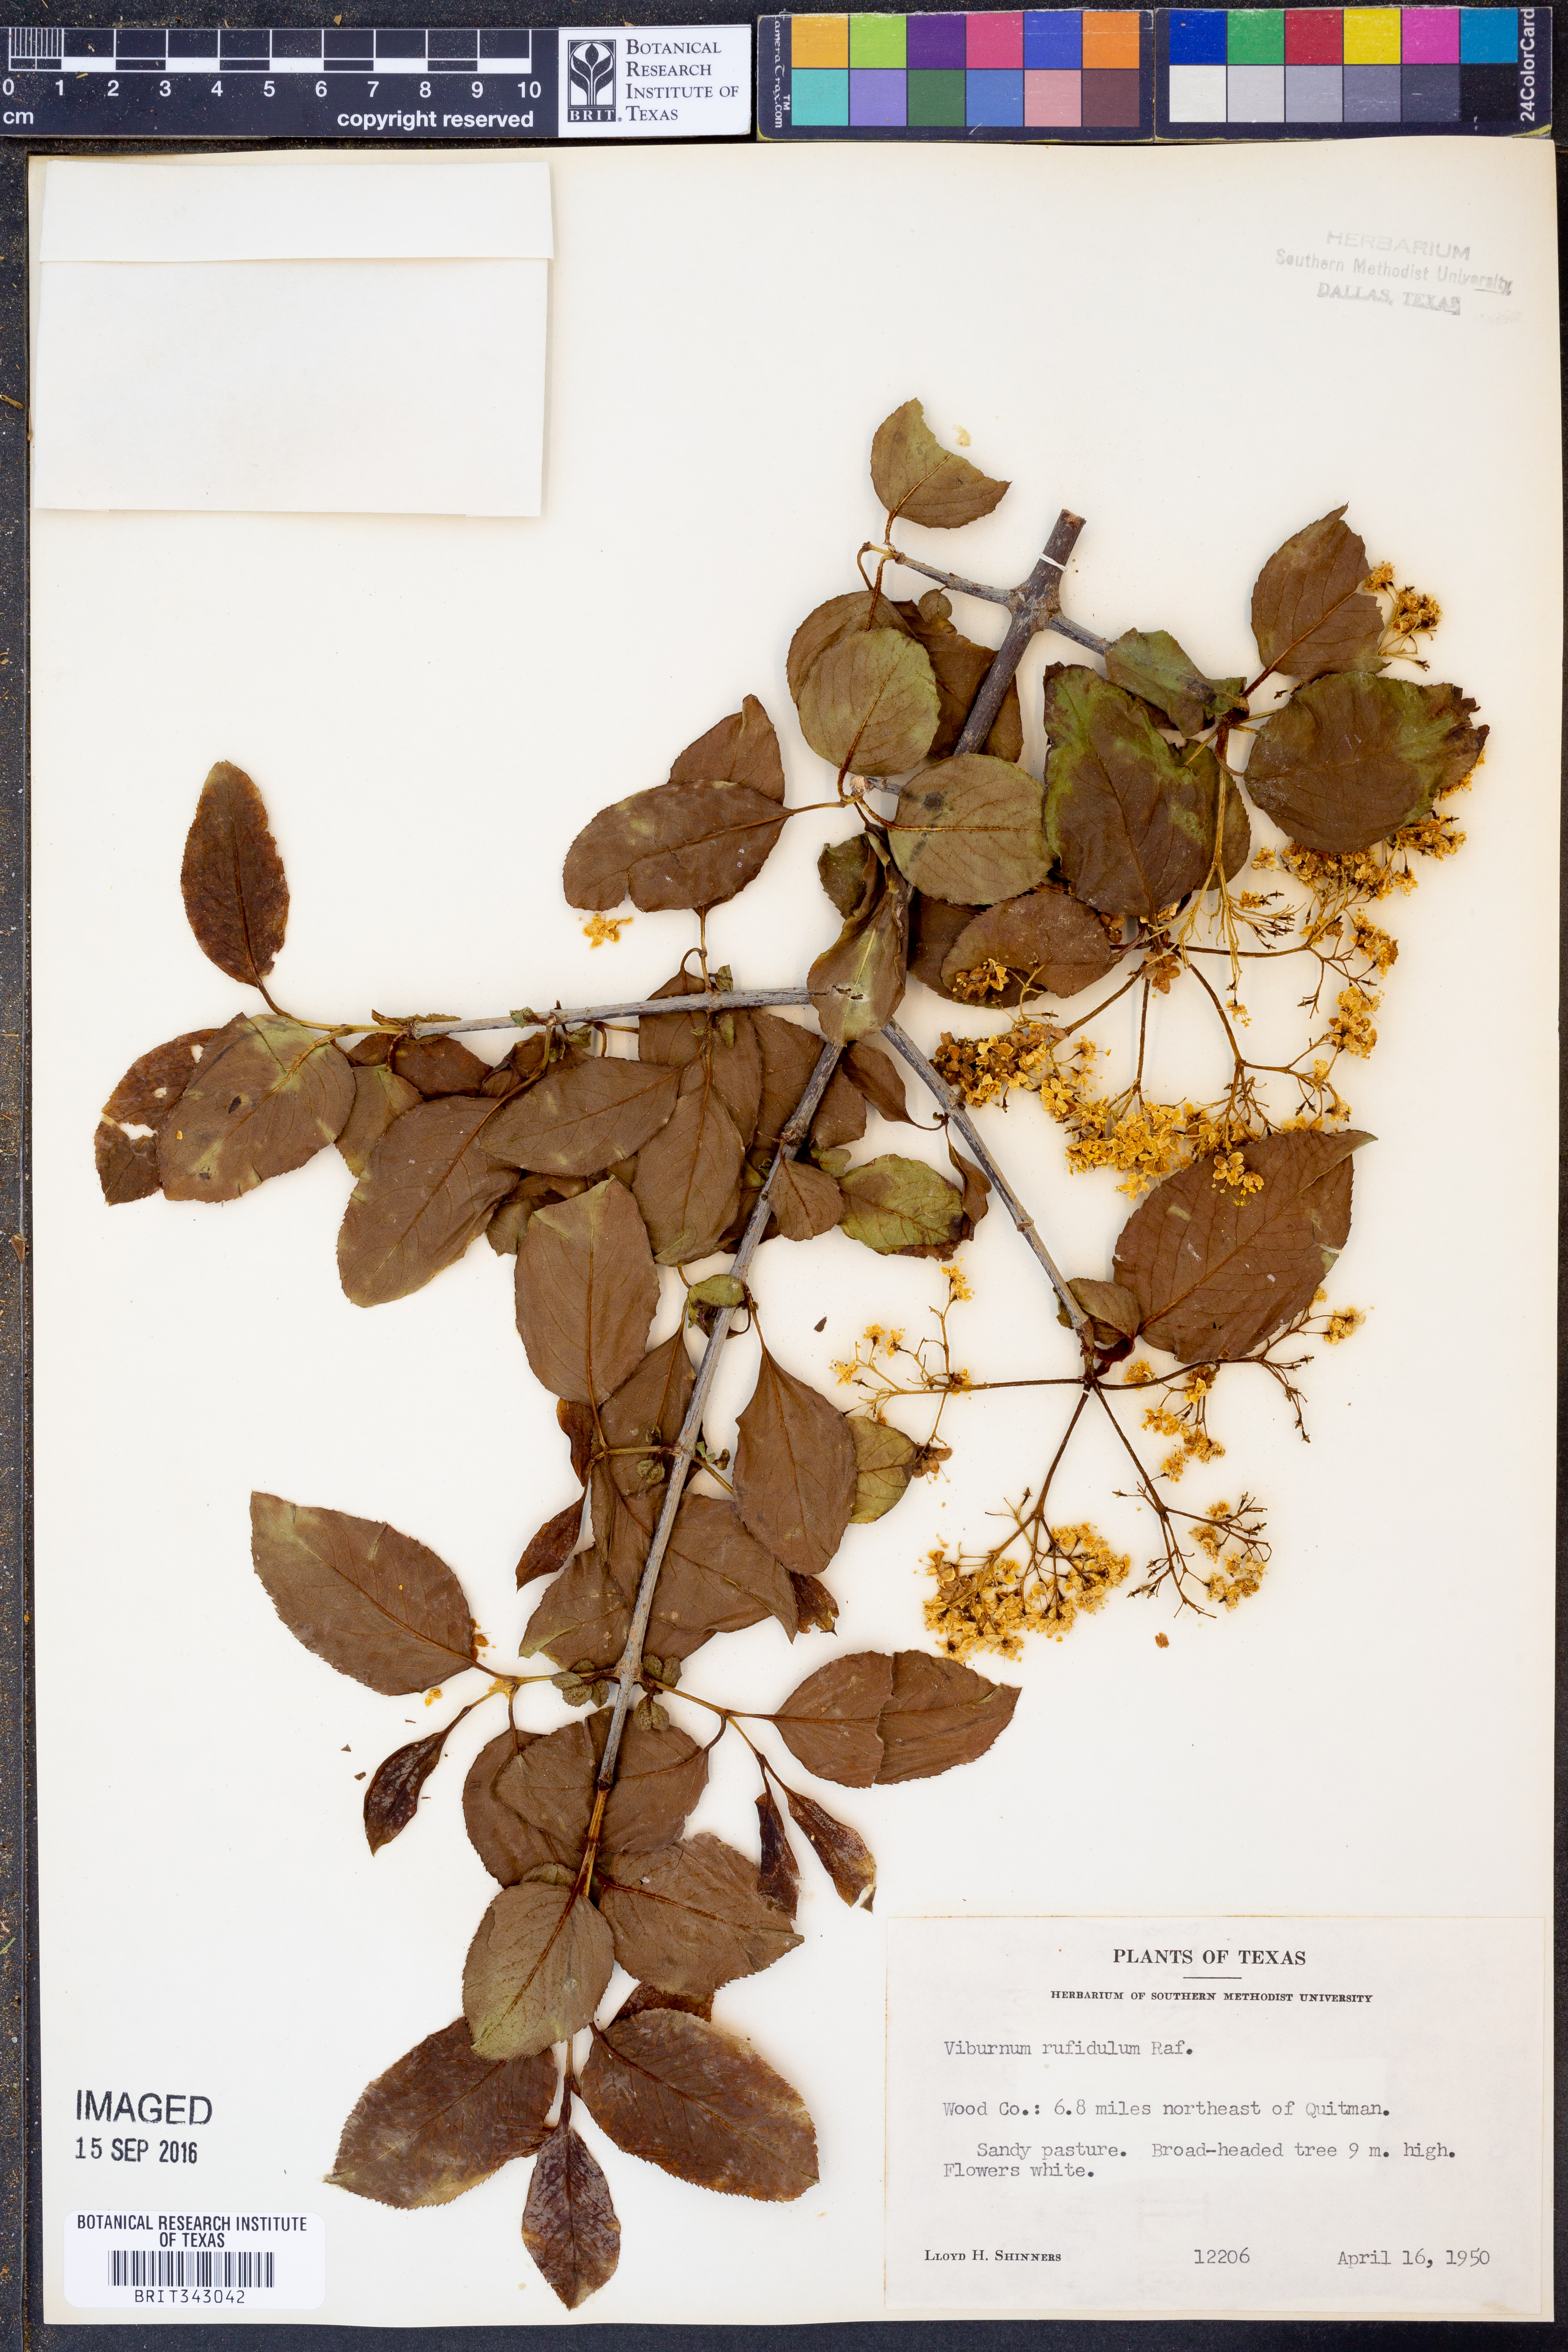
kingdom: Plantae
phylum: Tracheophyta
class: Magnoliopsida
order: Dipsacales
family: Viburnaceae
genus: Viburnum
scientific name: Viburnum rufidulum
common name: Blue haw
